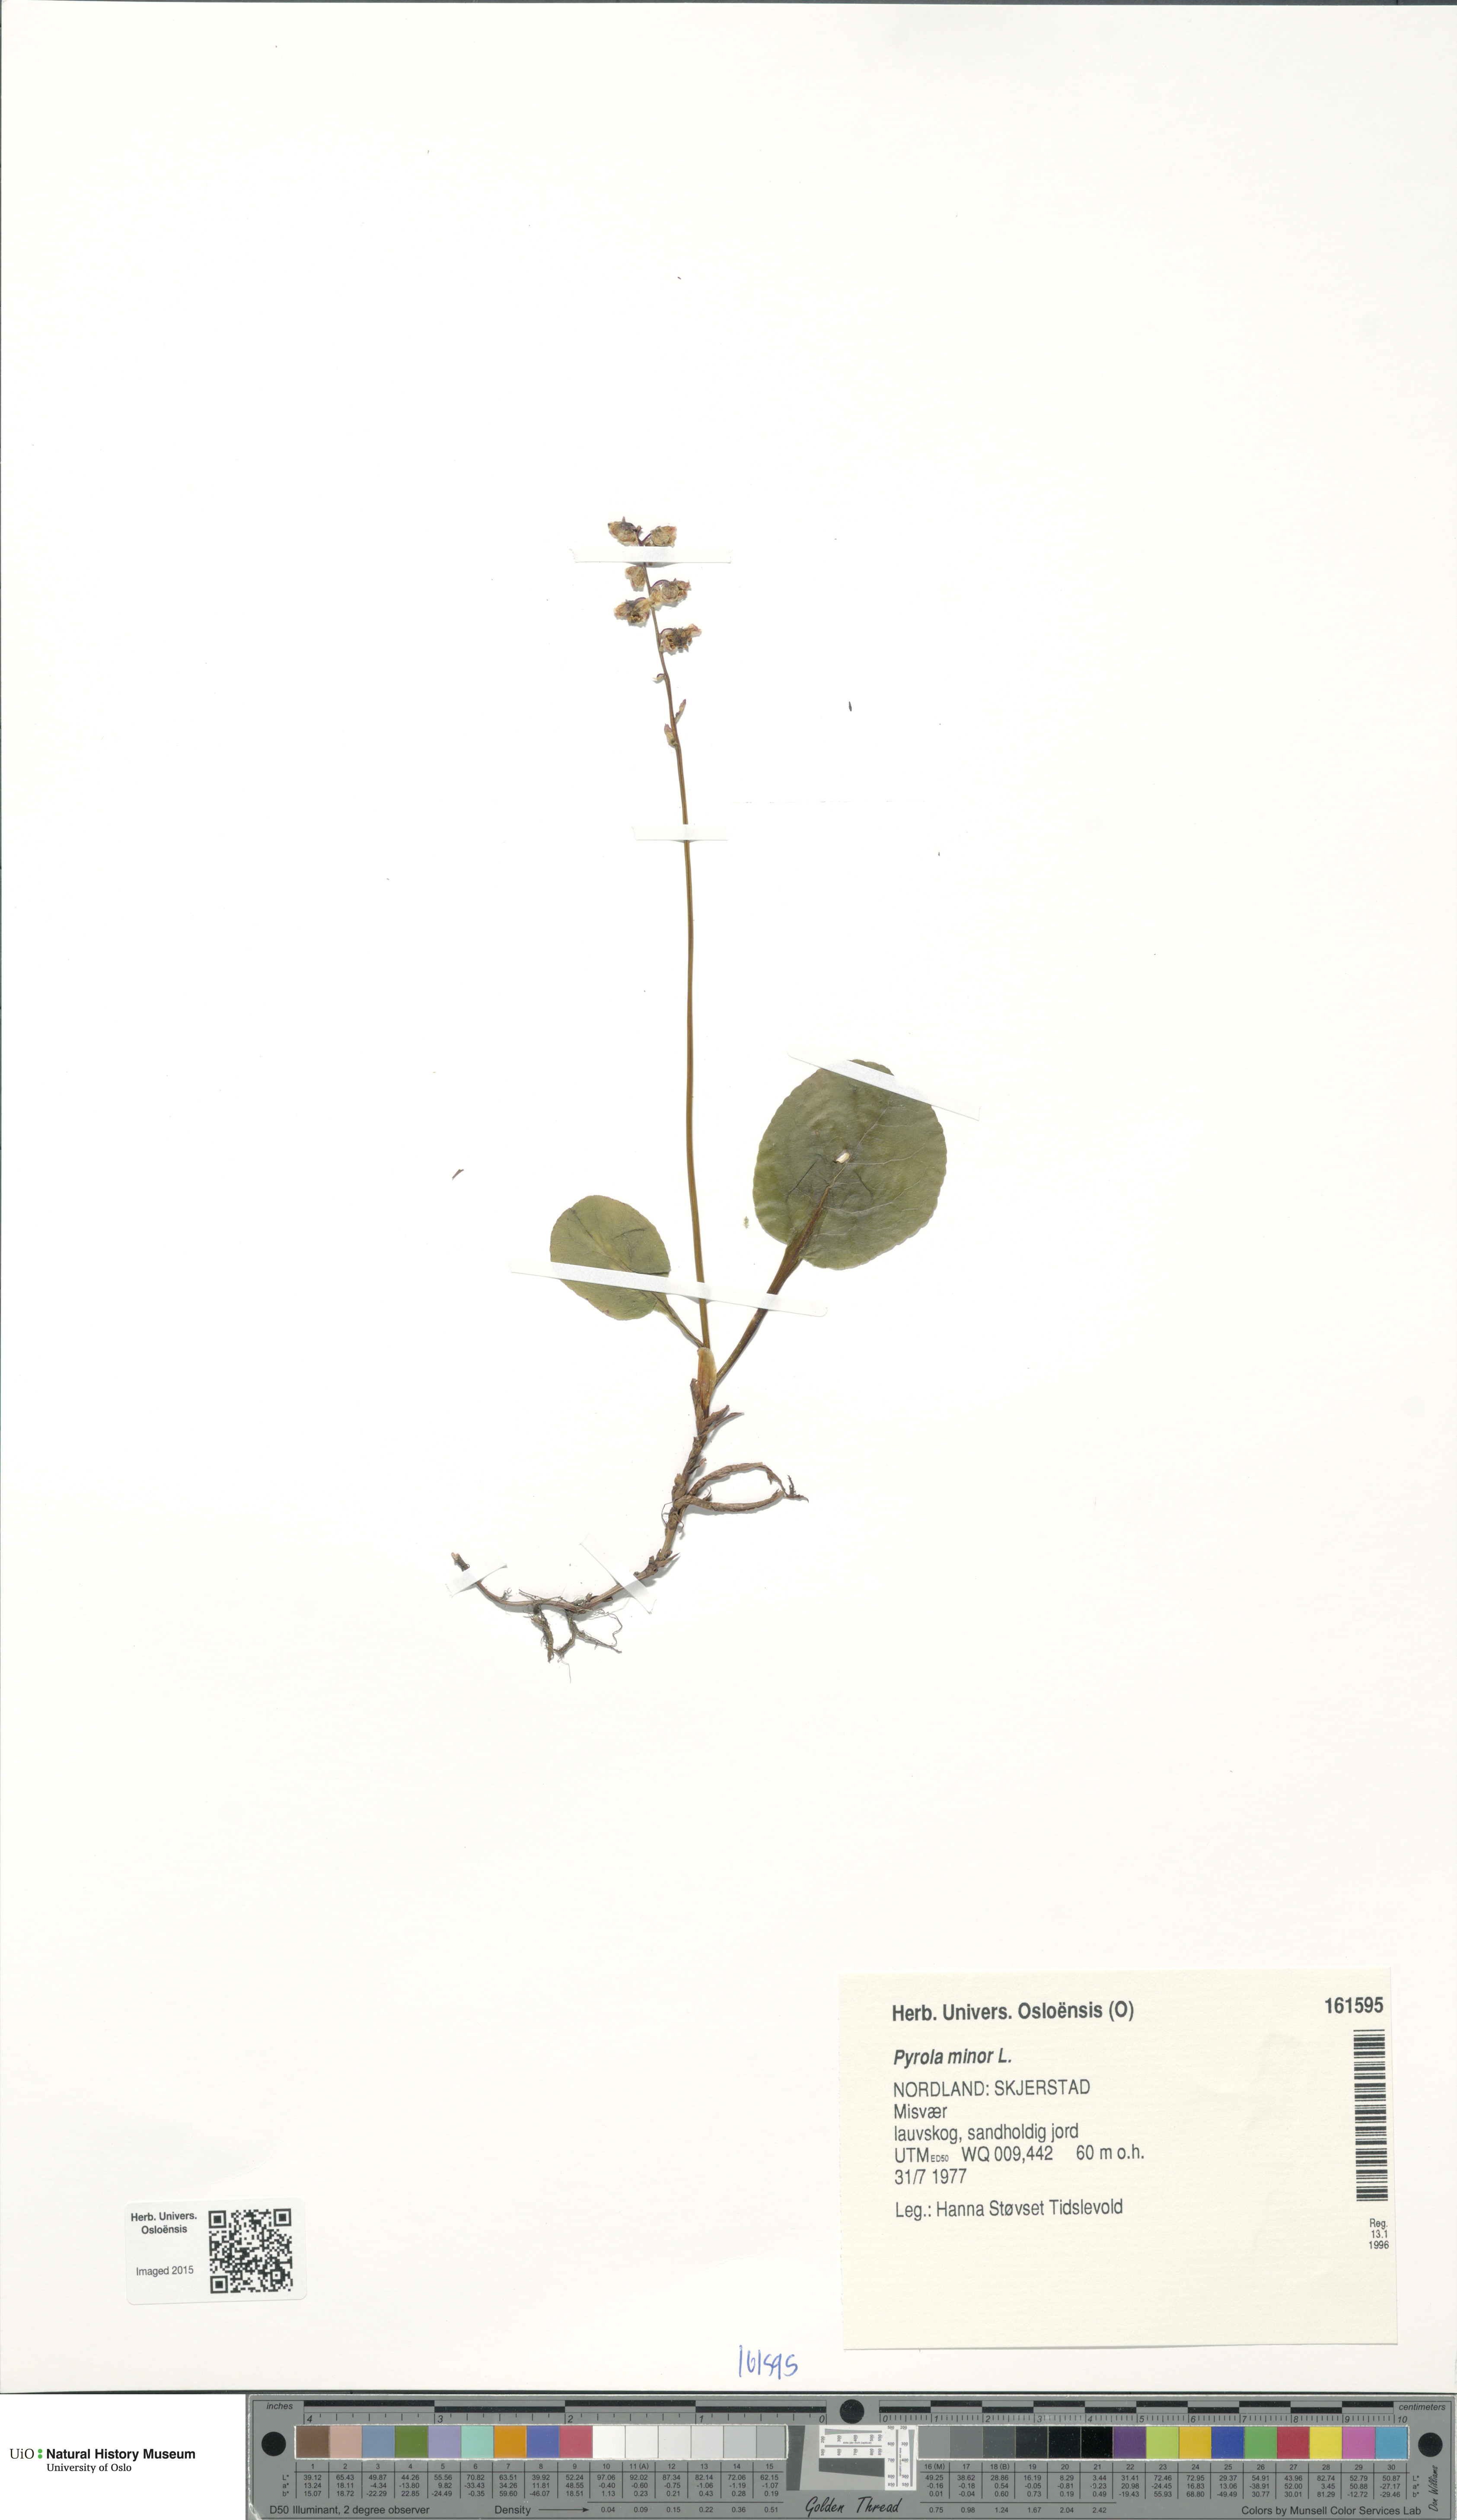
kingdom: Plantae
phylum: Tracheophyta
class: Magnoliopsida
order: Ericales
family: Ericaceae
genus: Pyrola
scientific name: Pyrola minor
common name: Common wintergreen
